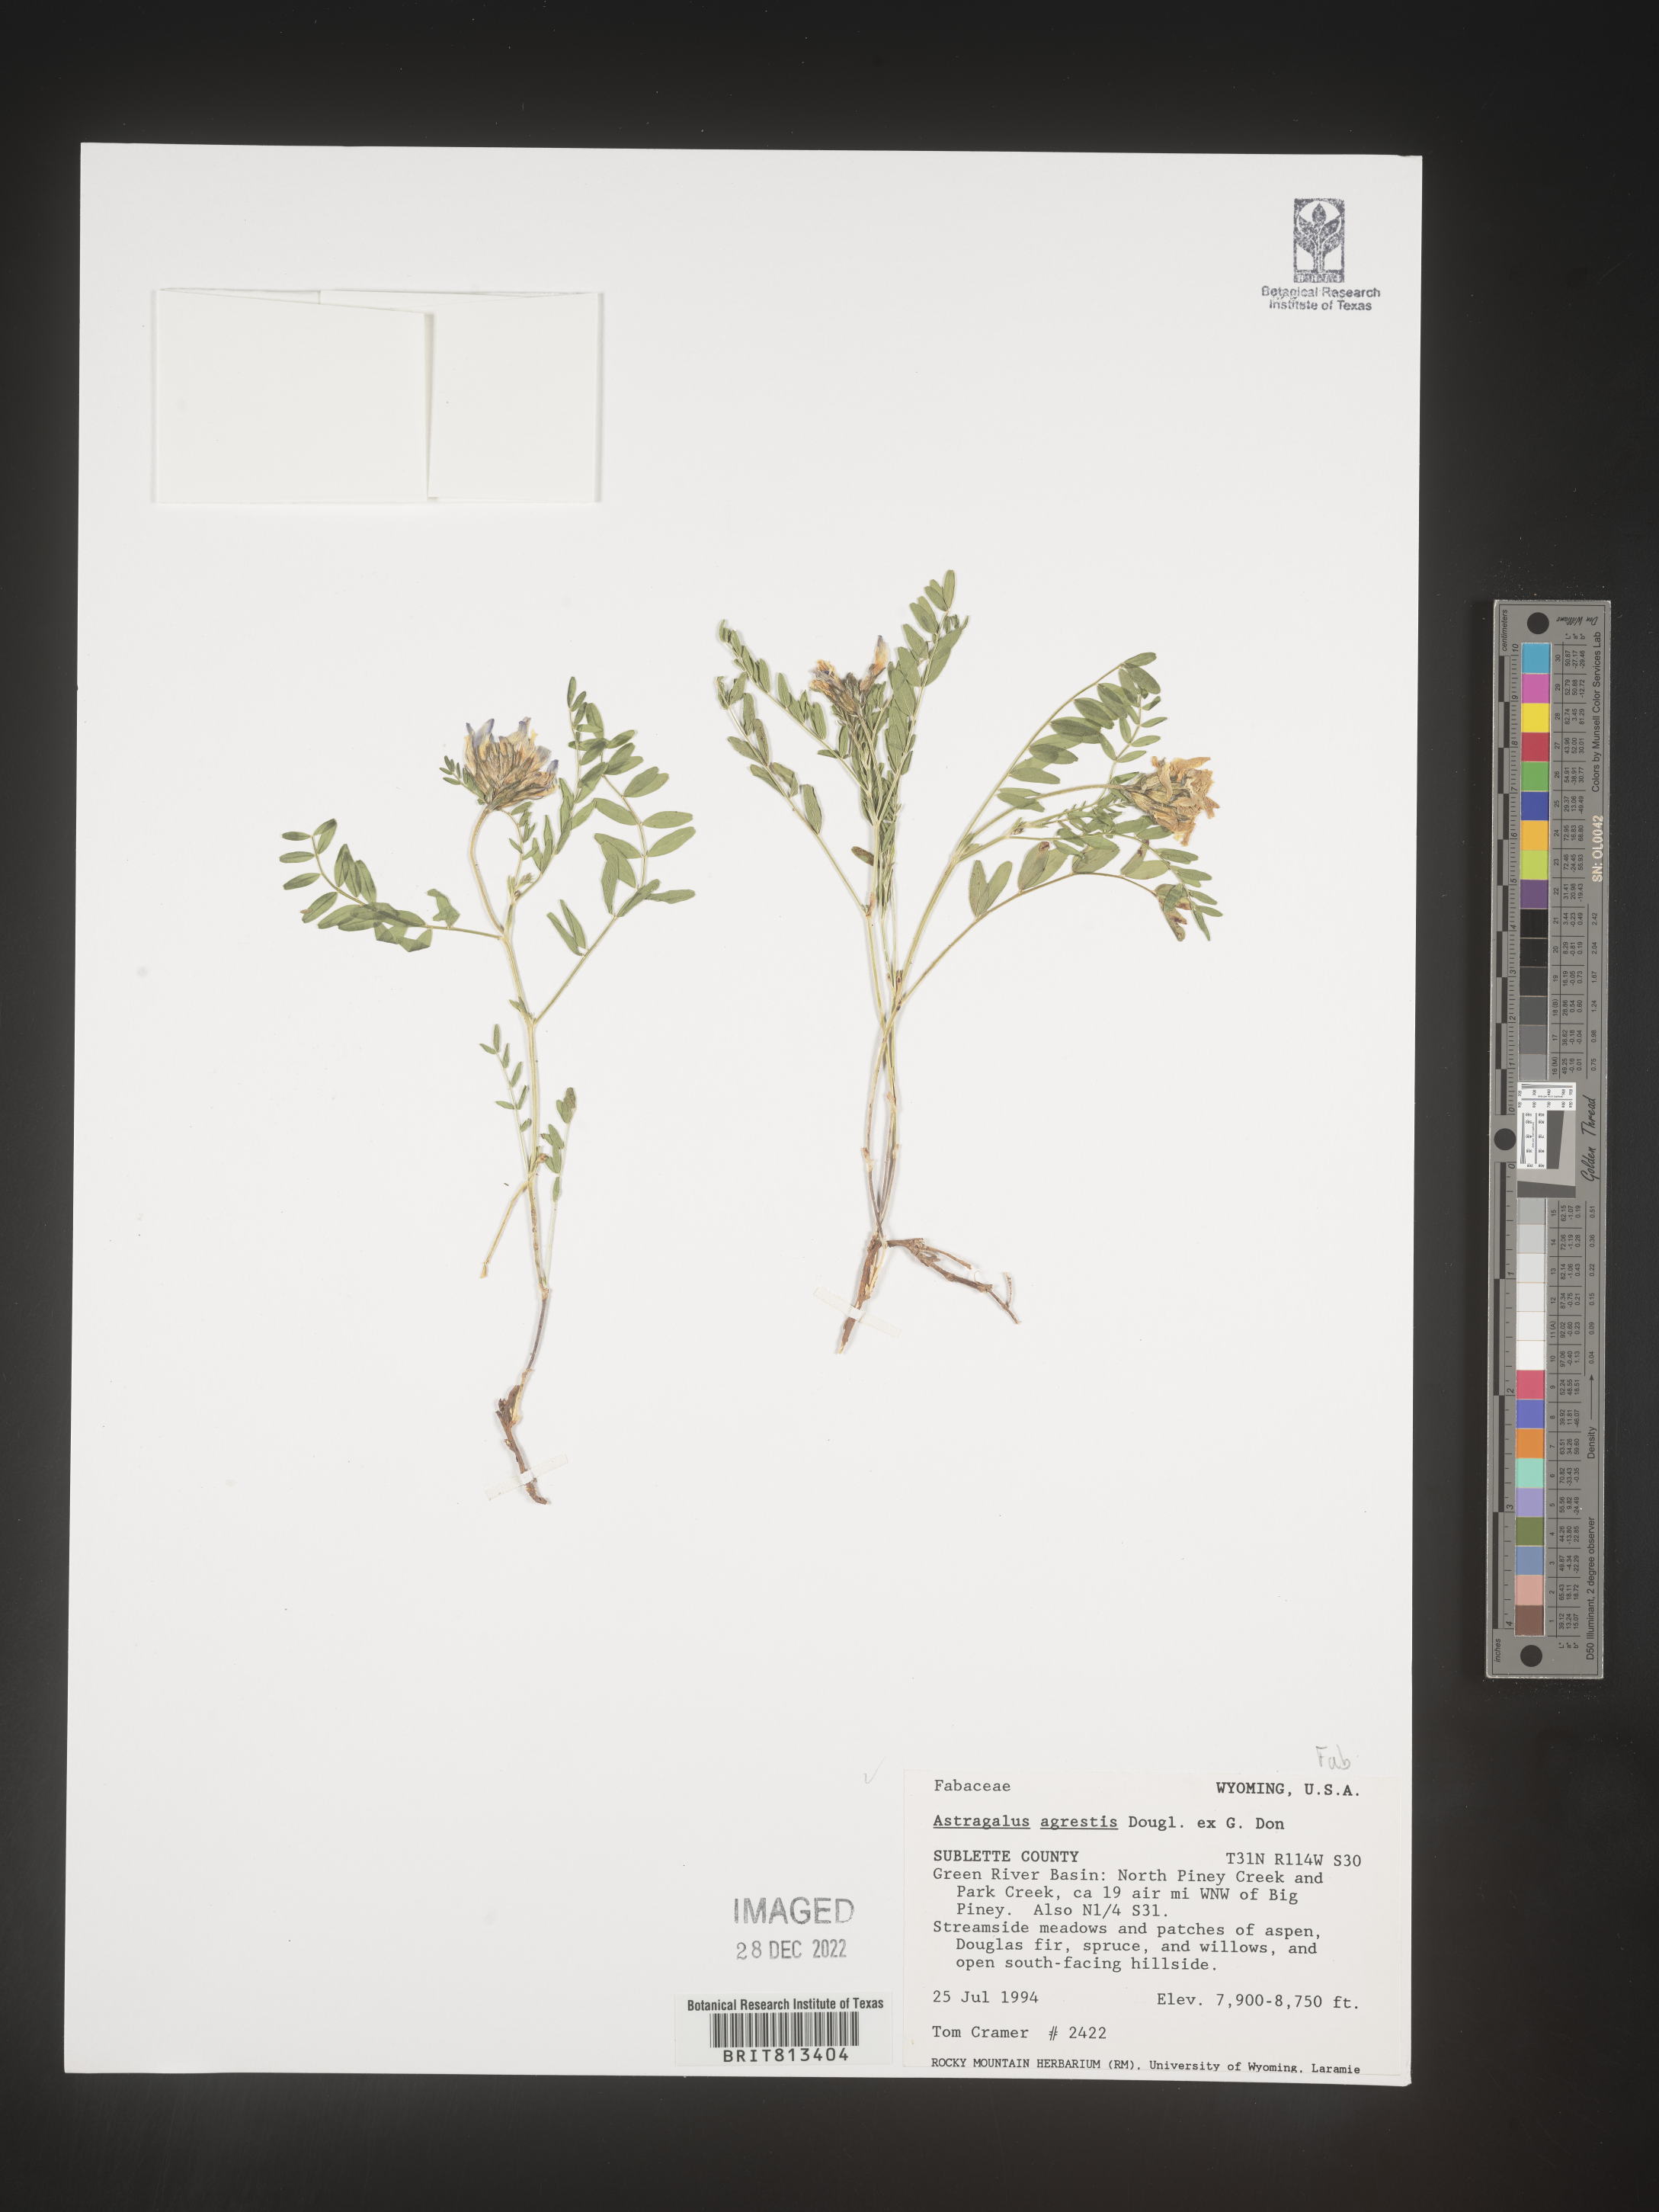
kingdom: Plantae
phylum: Tracheophyta
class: Magnoliopsida
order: Fabales
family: Fabaceae
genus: Astragalus
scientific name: Astragalus agrestis
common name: Field milk-vetch
